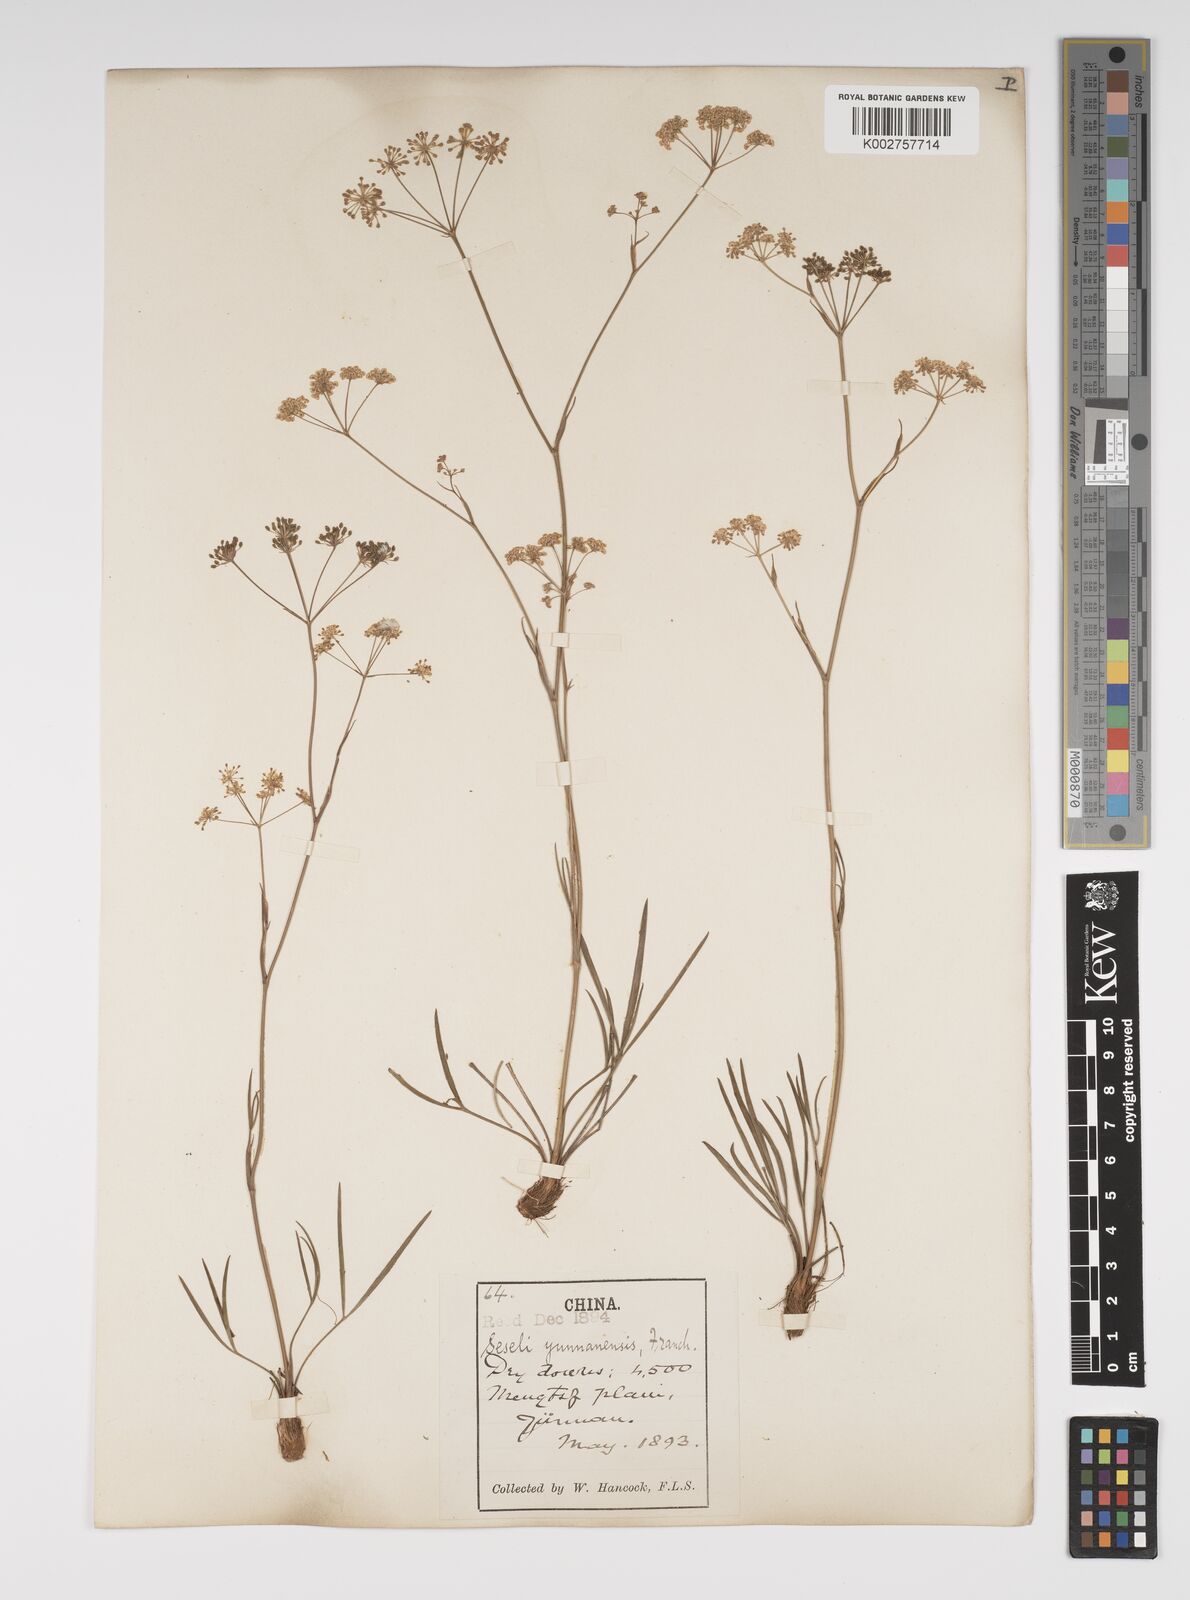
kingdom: Plantae
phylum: Tracheophyta
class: Magnoliopsida
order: Apiales
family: Apiaceae
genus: Seseli
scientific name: Seseli yunnanense
